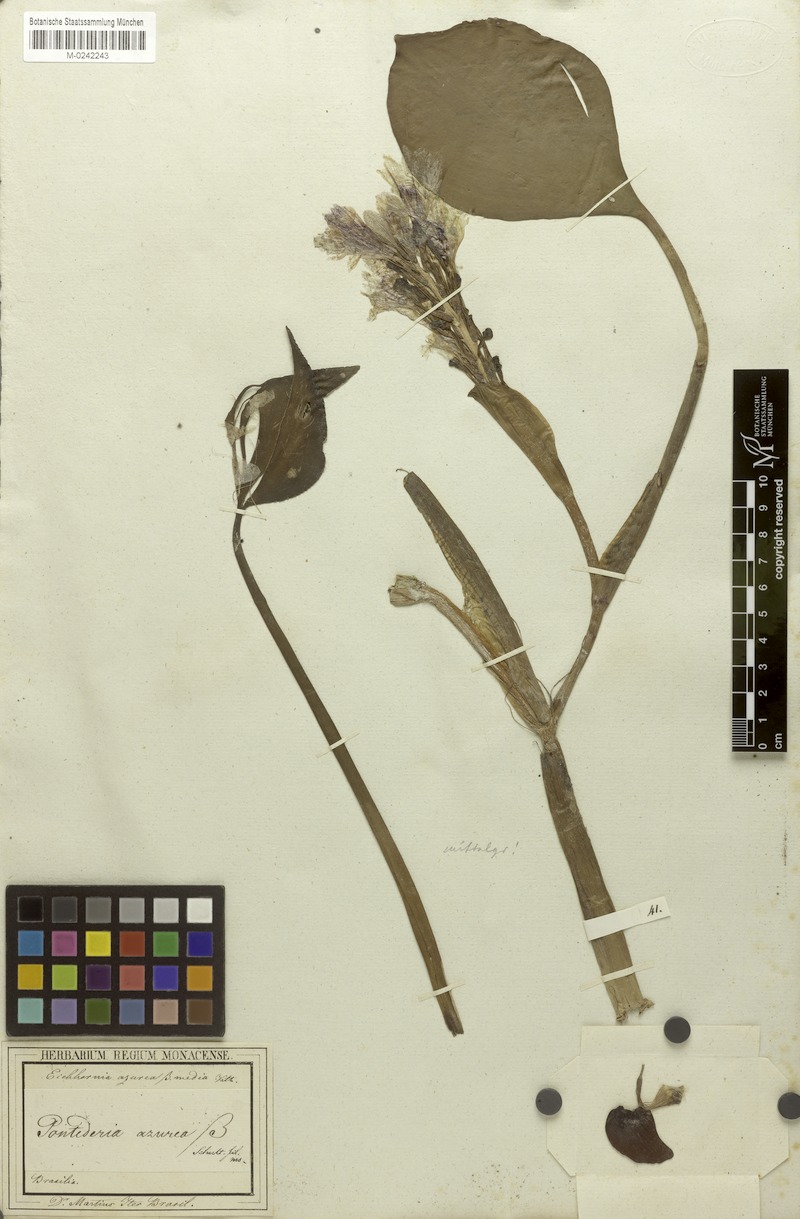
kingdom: Plantae
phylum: Tracheophyta
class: Liliopsida
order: Commelinales
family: Pontederiaceae
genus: Pontederia
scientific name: Pontederia azurea
